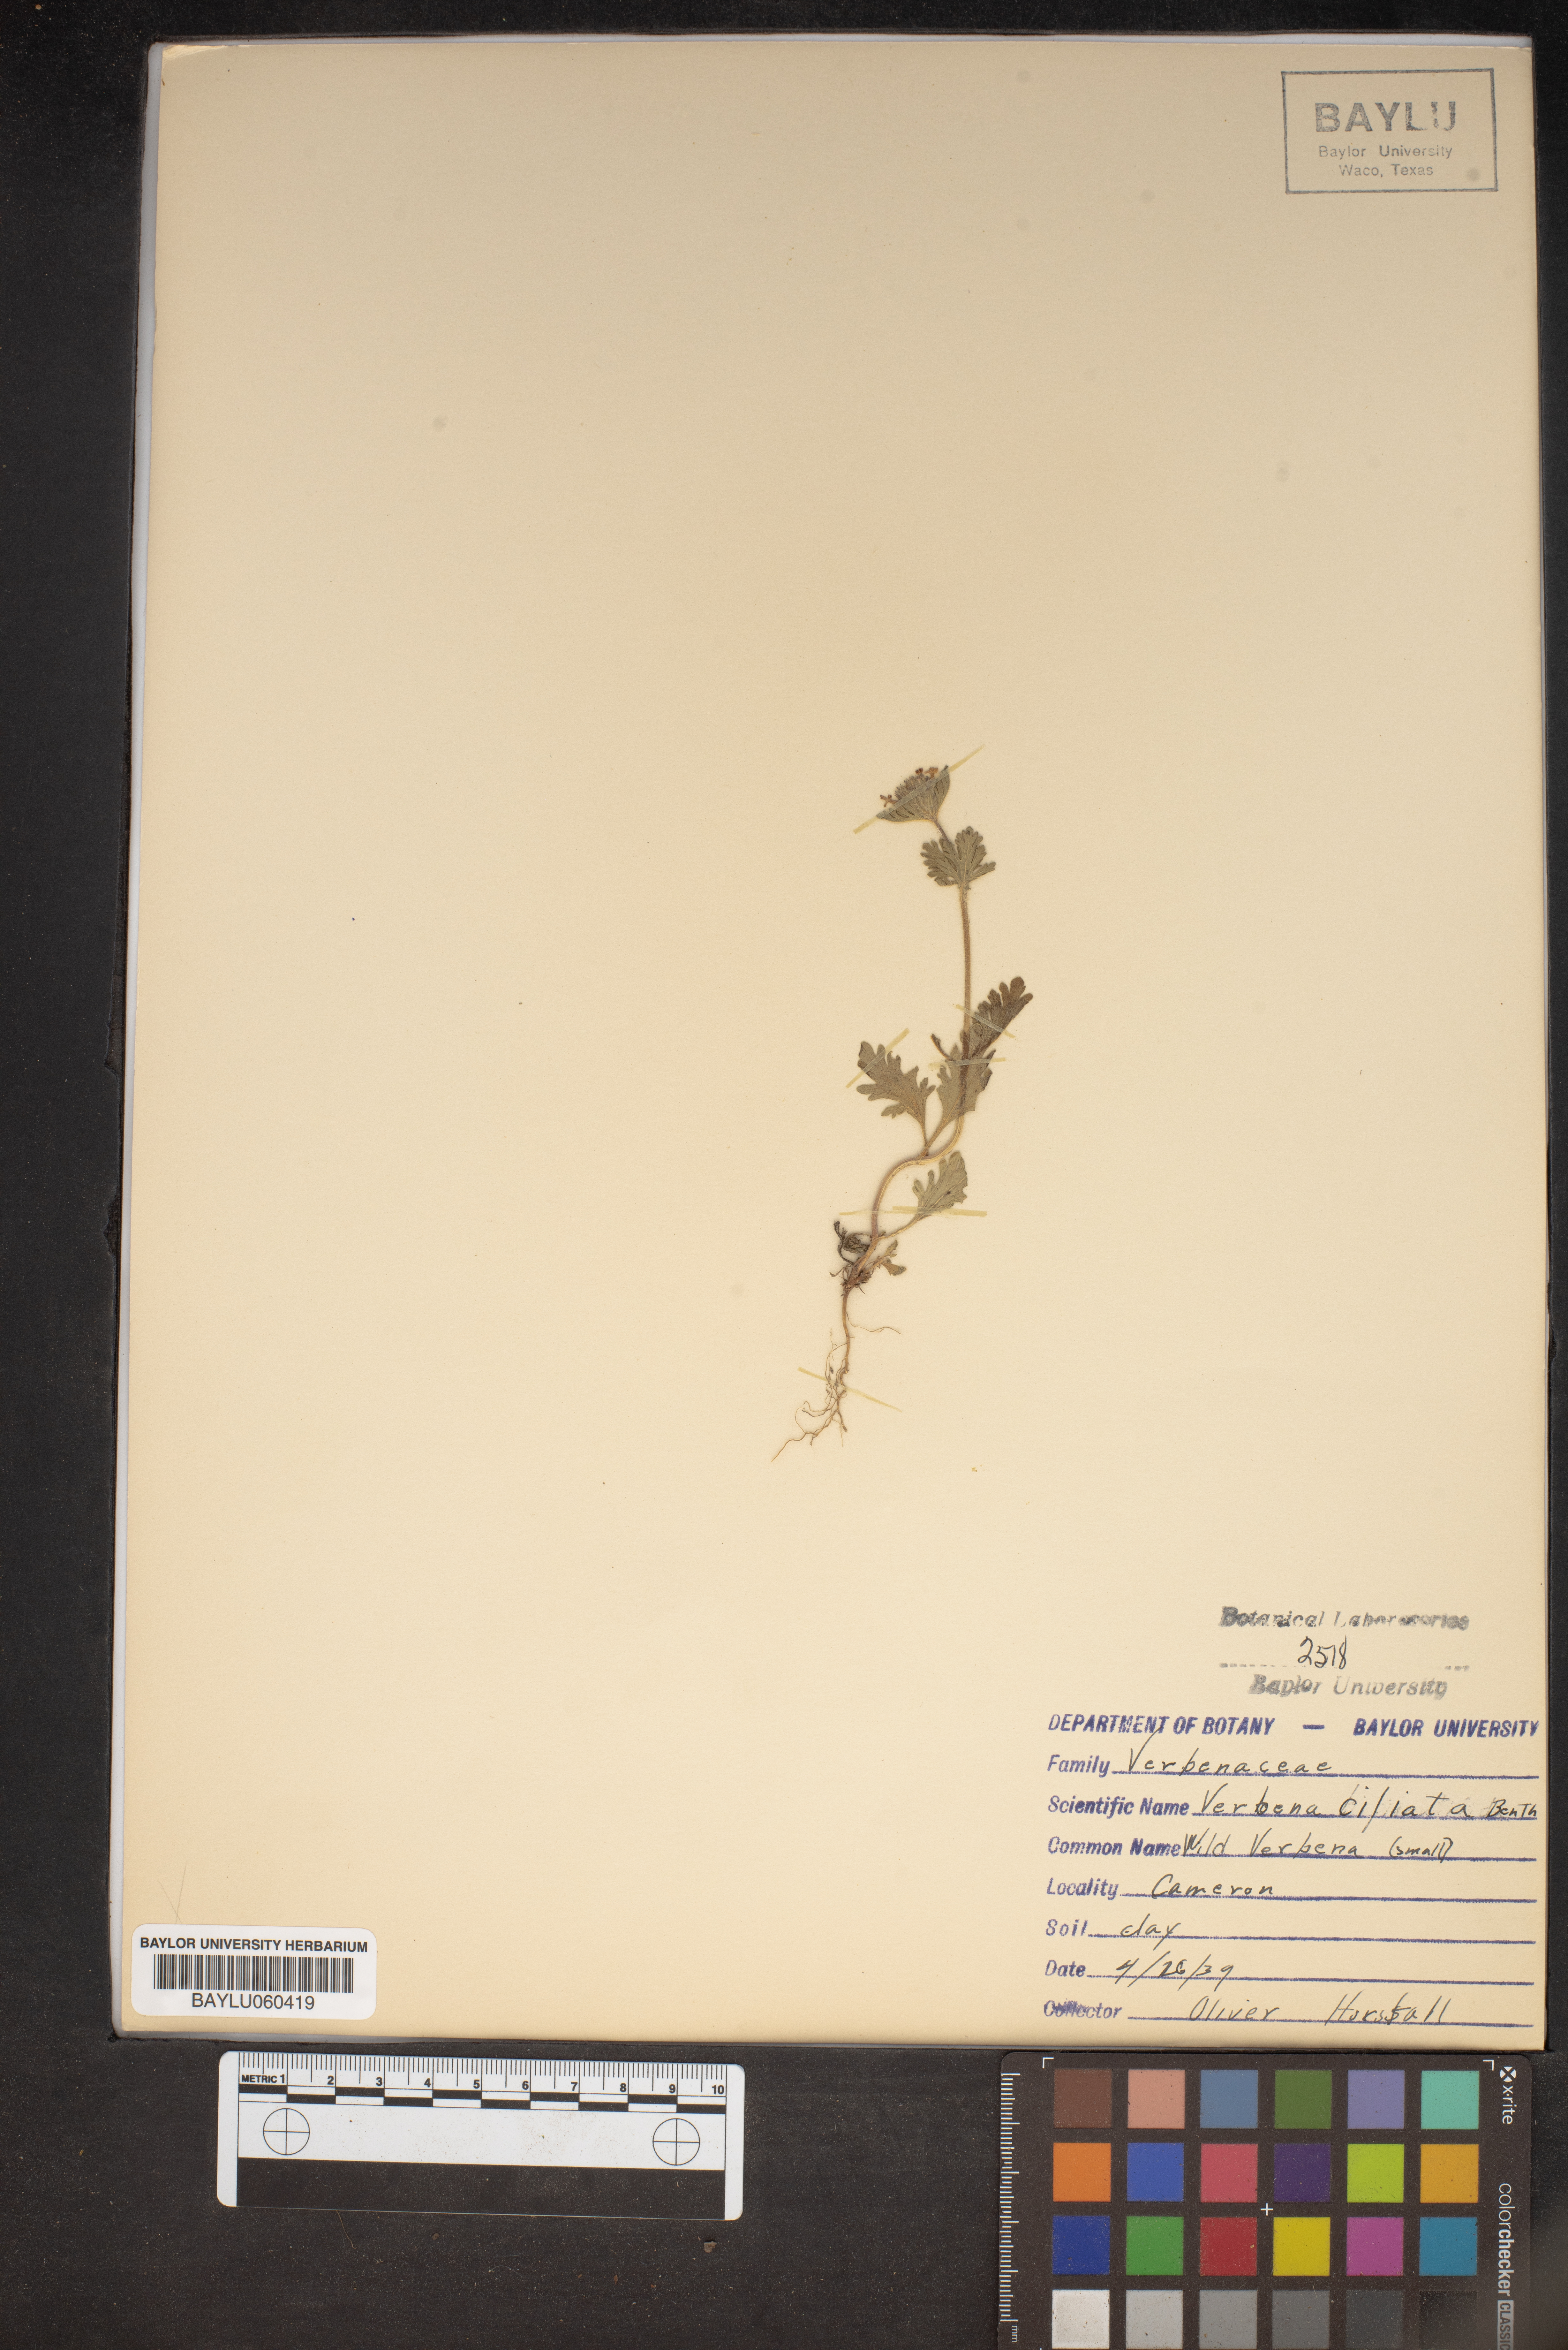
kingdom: Plantae
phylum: Tracheophyta
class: Magnoliopsida
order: Lamiales
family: Verbenaceae
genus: Verbena
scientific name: Verbena bipinnatifida
